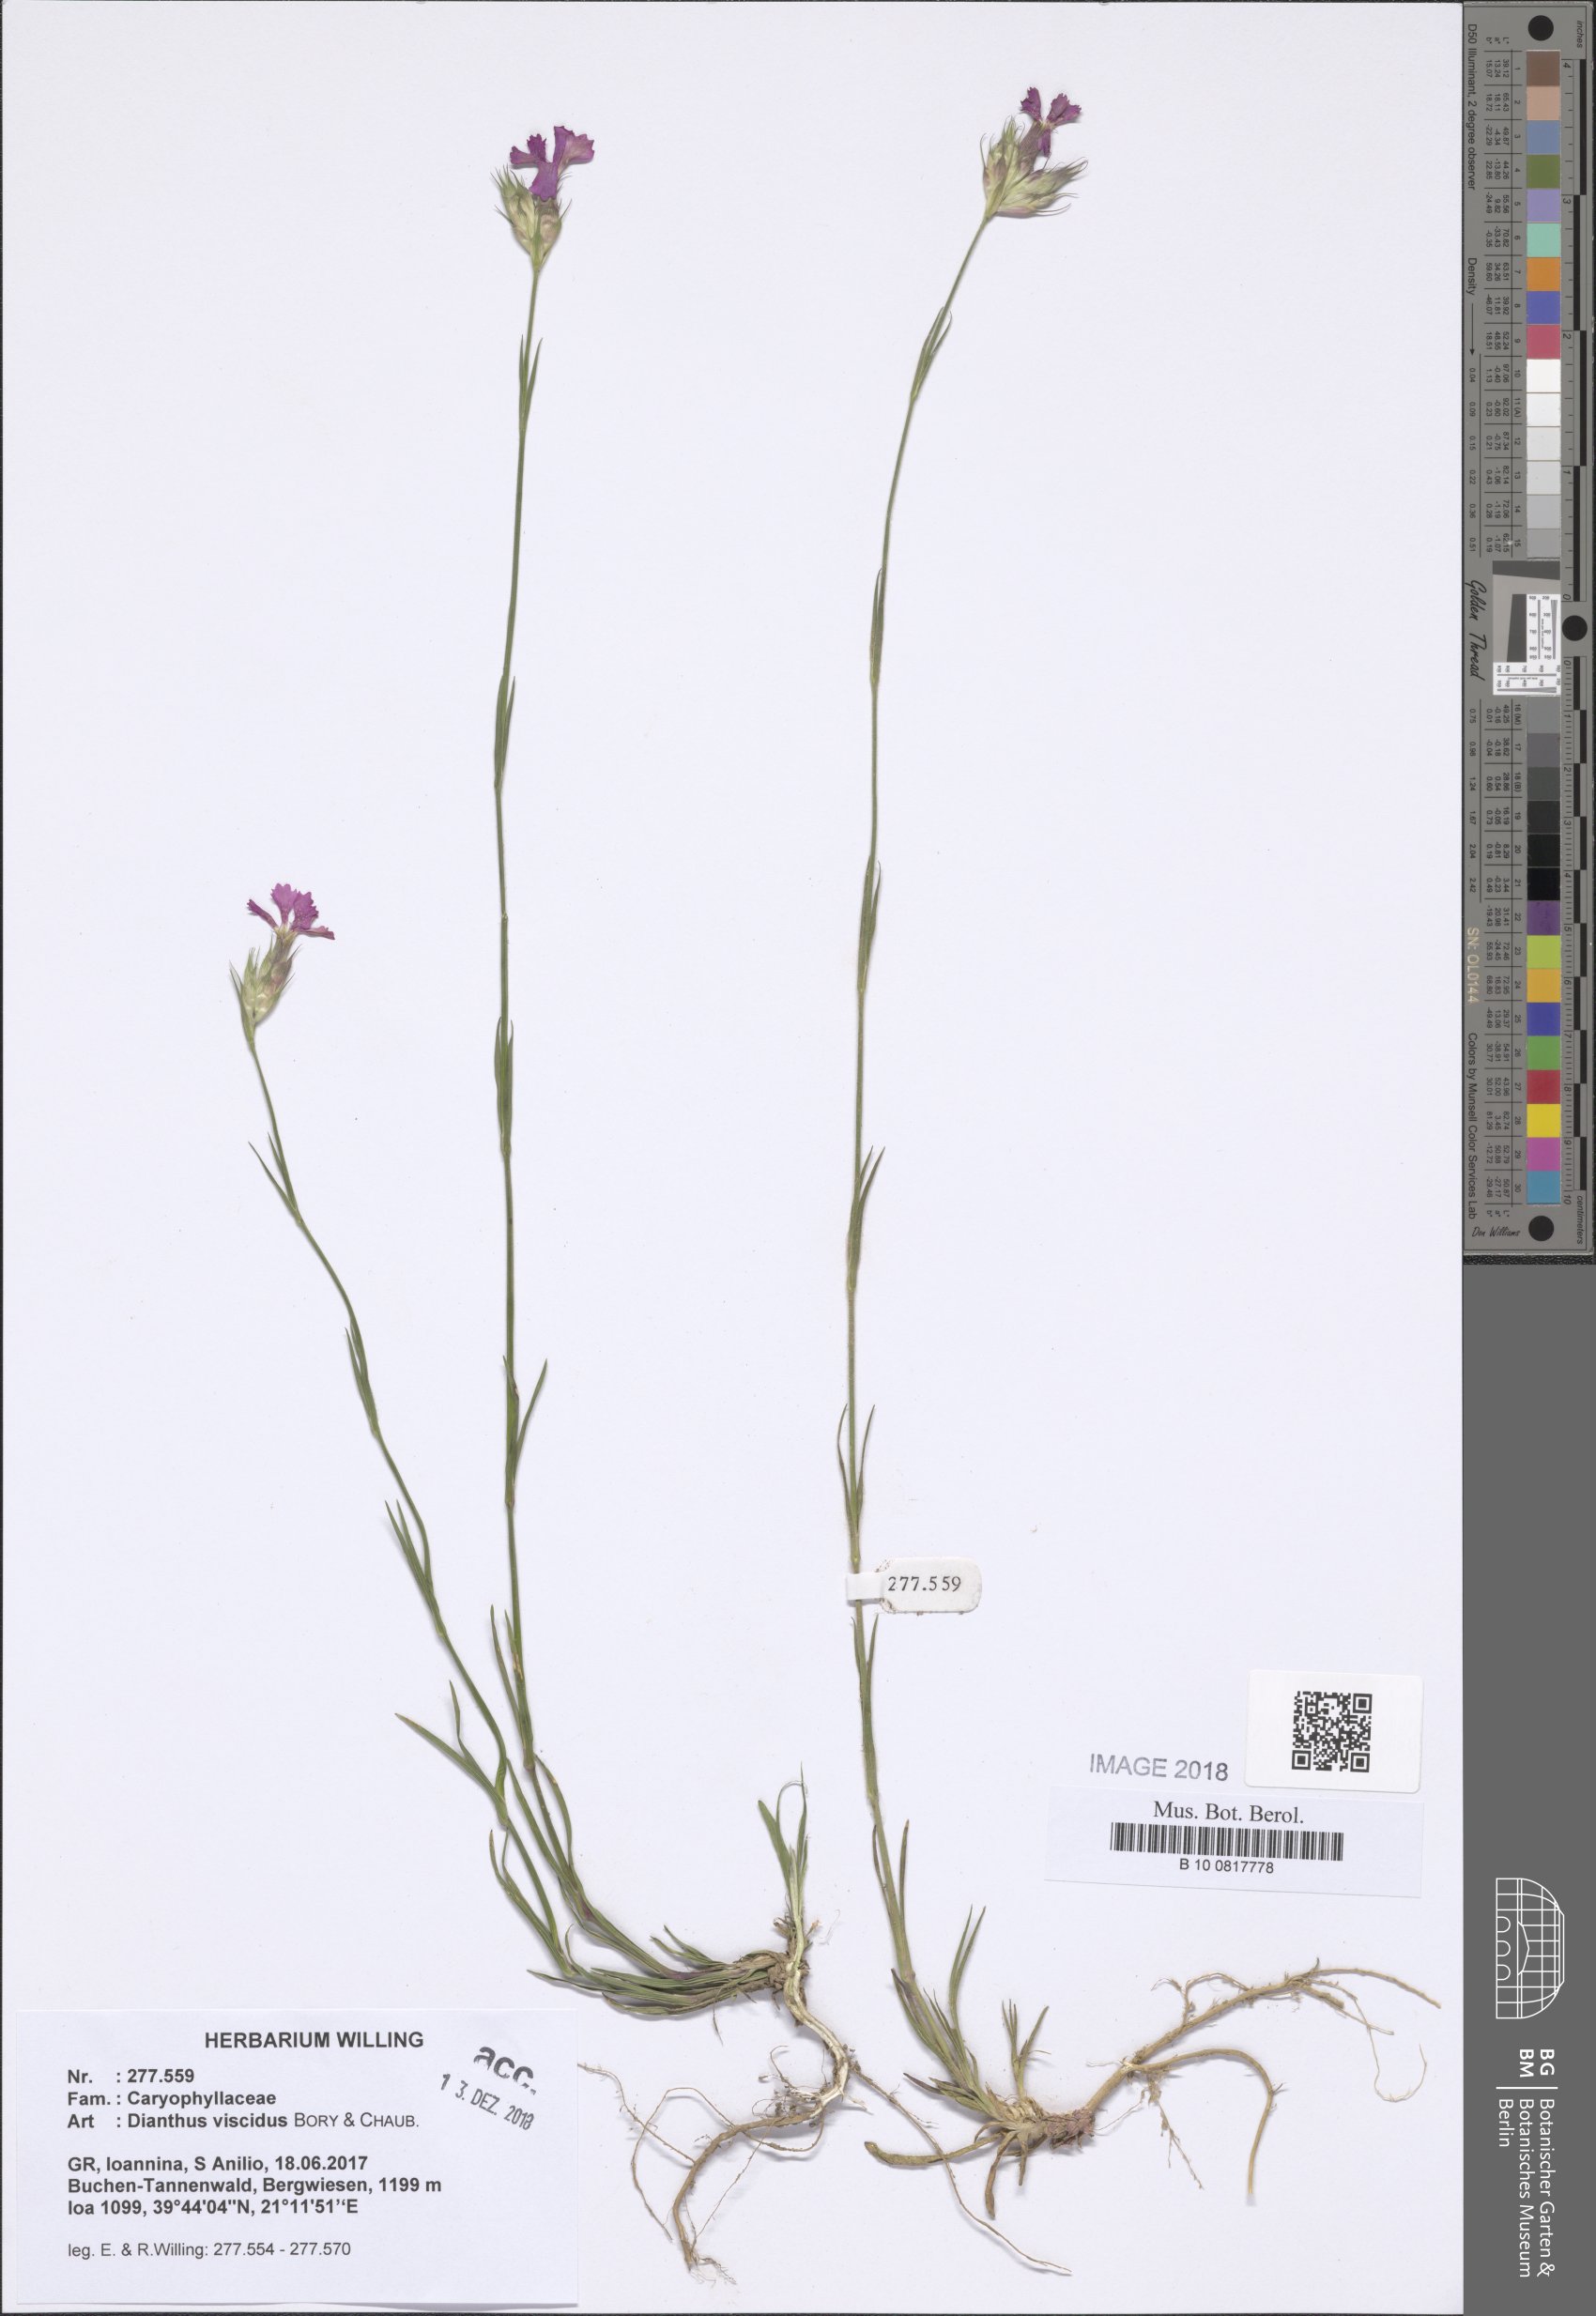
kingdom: Plantae
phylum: Tracheophyta
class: Magnoliopsida
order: Caryophyllales
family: Caryophyllaceae
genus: Dianthus
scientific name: Dianthus viscidus
